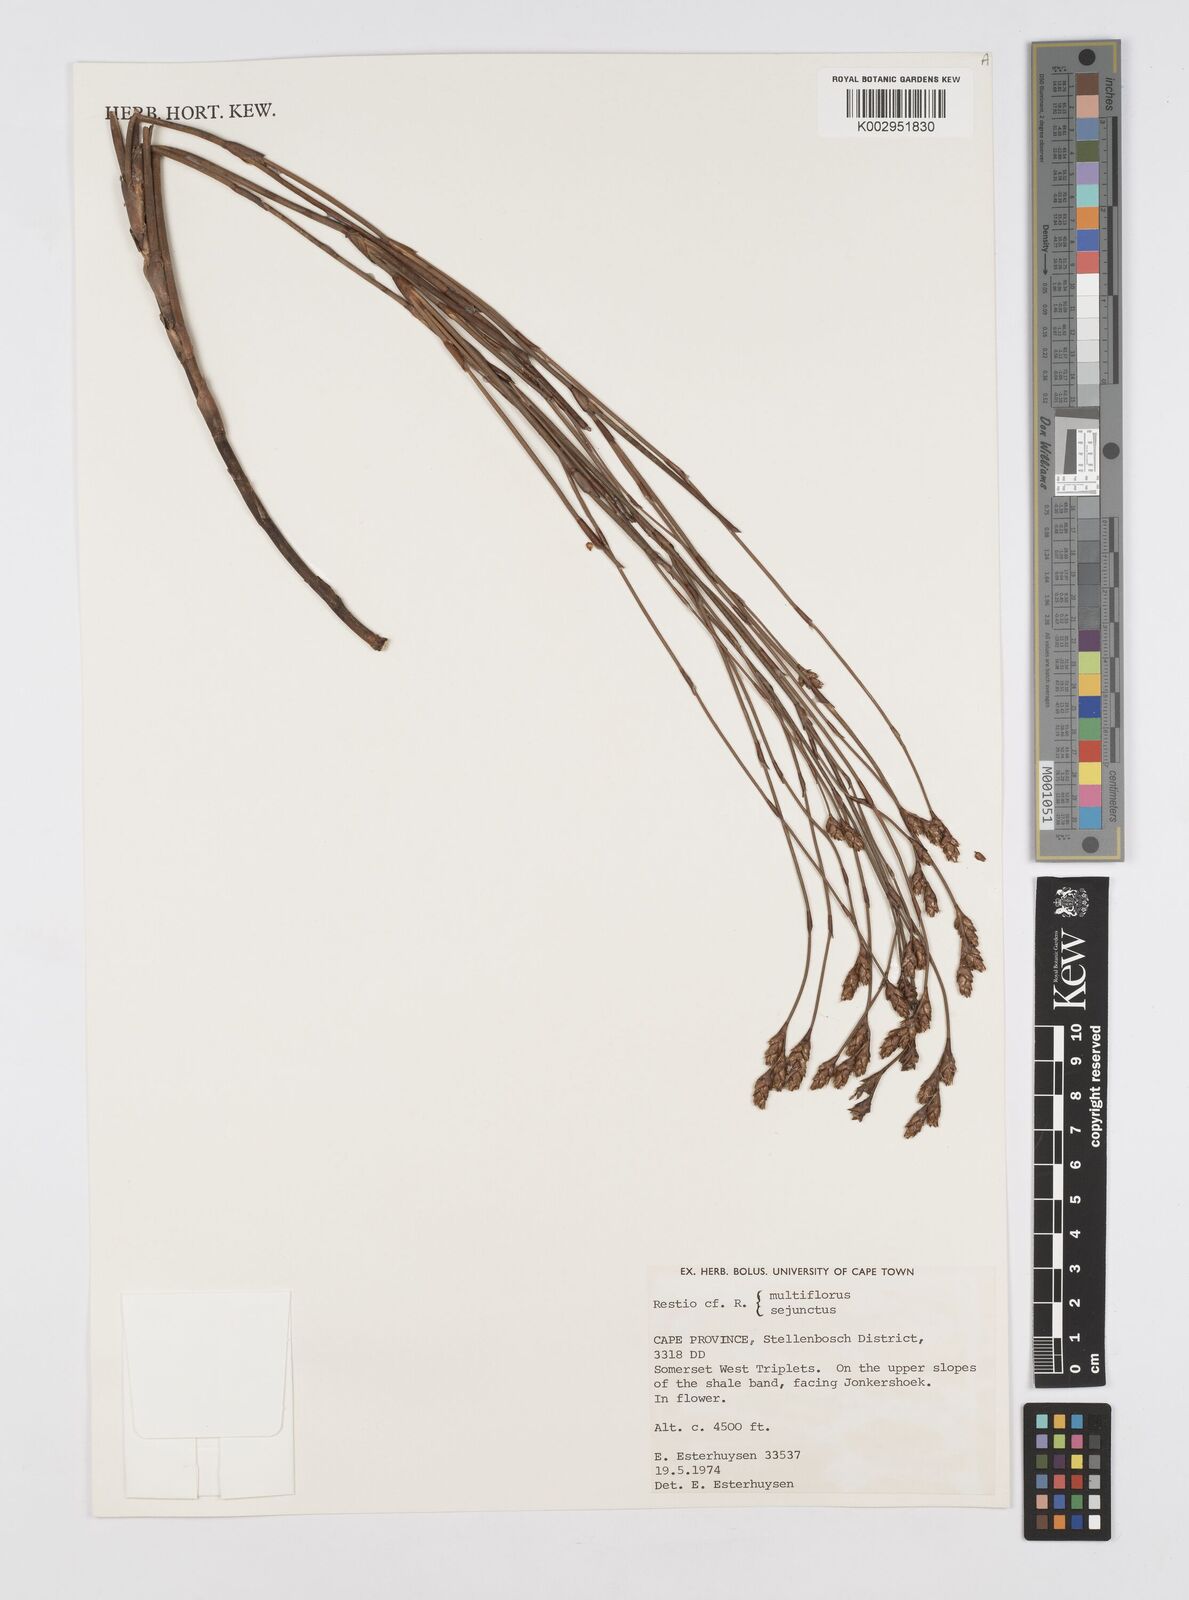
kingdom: Plantae
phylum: Tracheophyta
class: Liliopsida
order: Poales
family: Restionaceae
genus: Restio
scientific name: Restio
